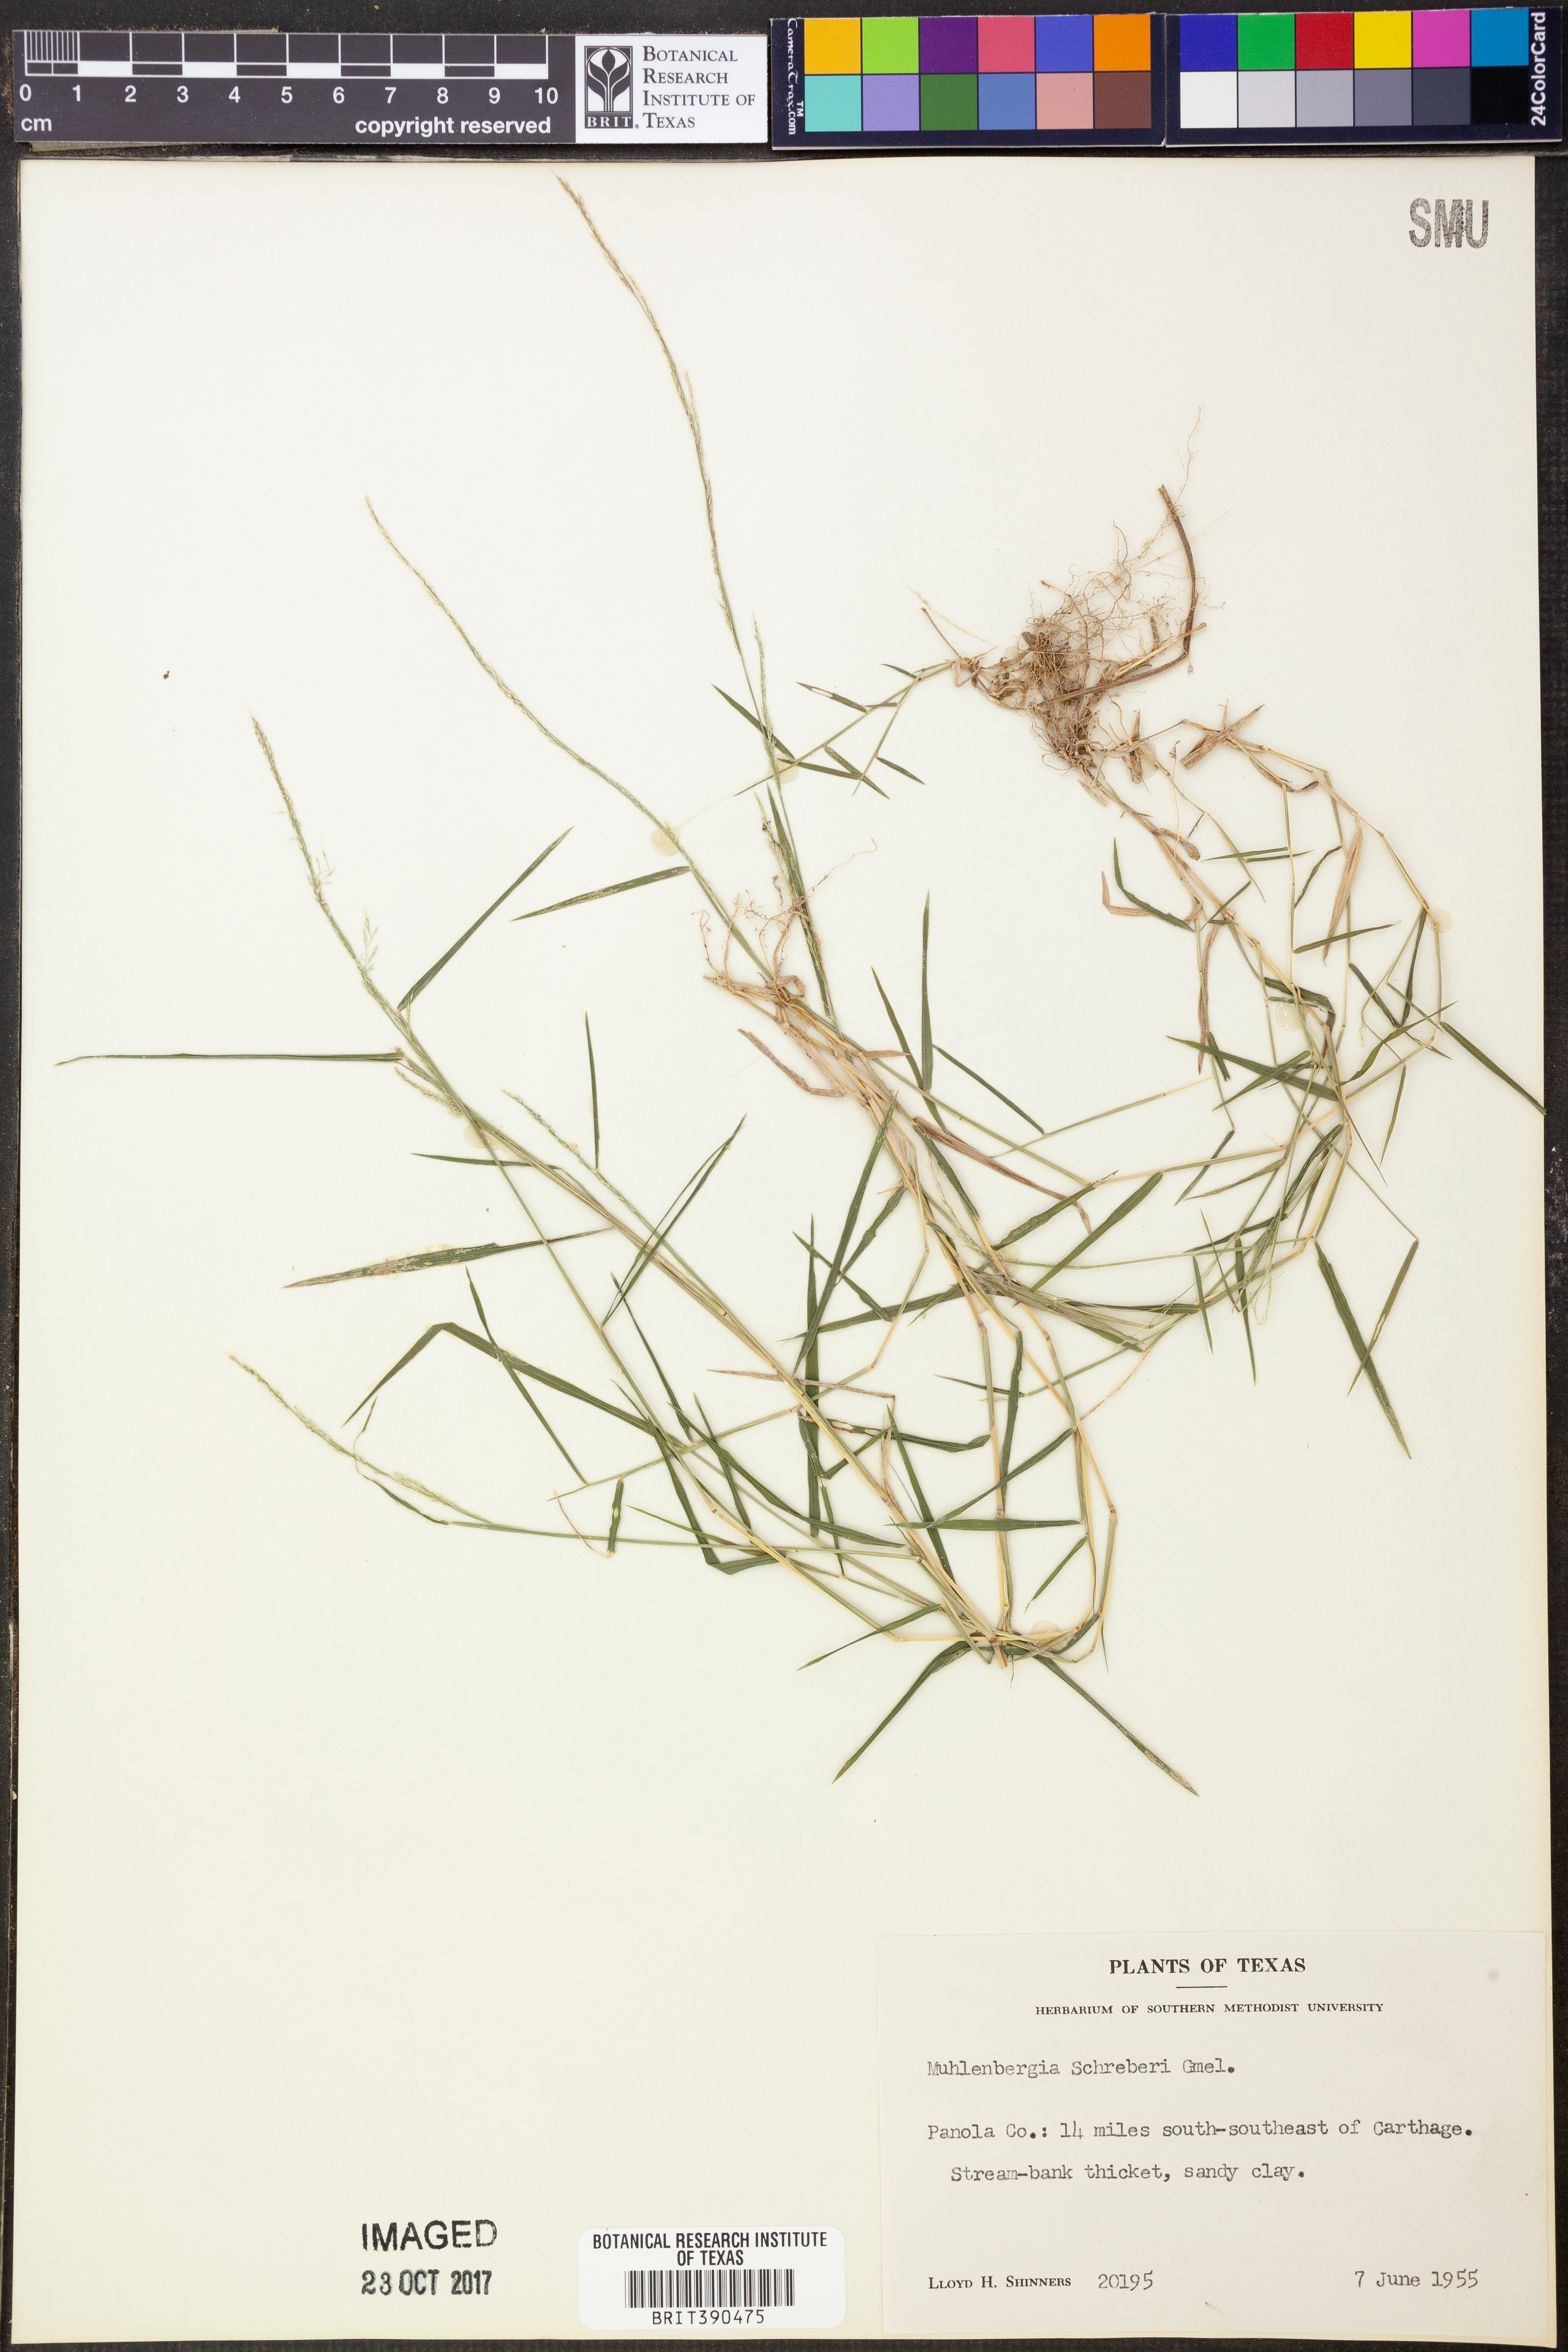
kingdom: Plantae
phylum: Tracheophyta
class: Liliopsida
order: Poales
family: Poaceae
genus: Muhlenbergia
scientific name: Muhlenbergia schreberi
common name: Nimblewill
